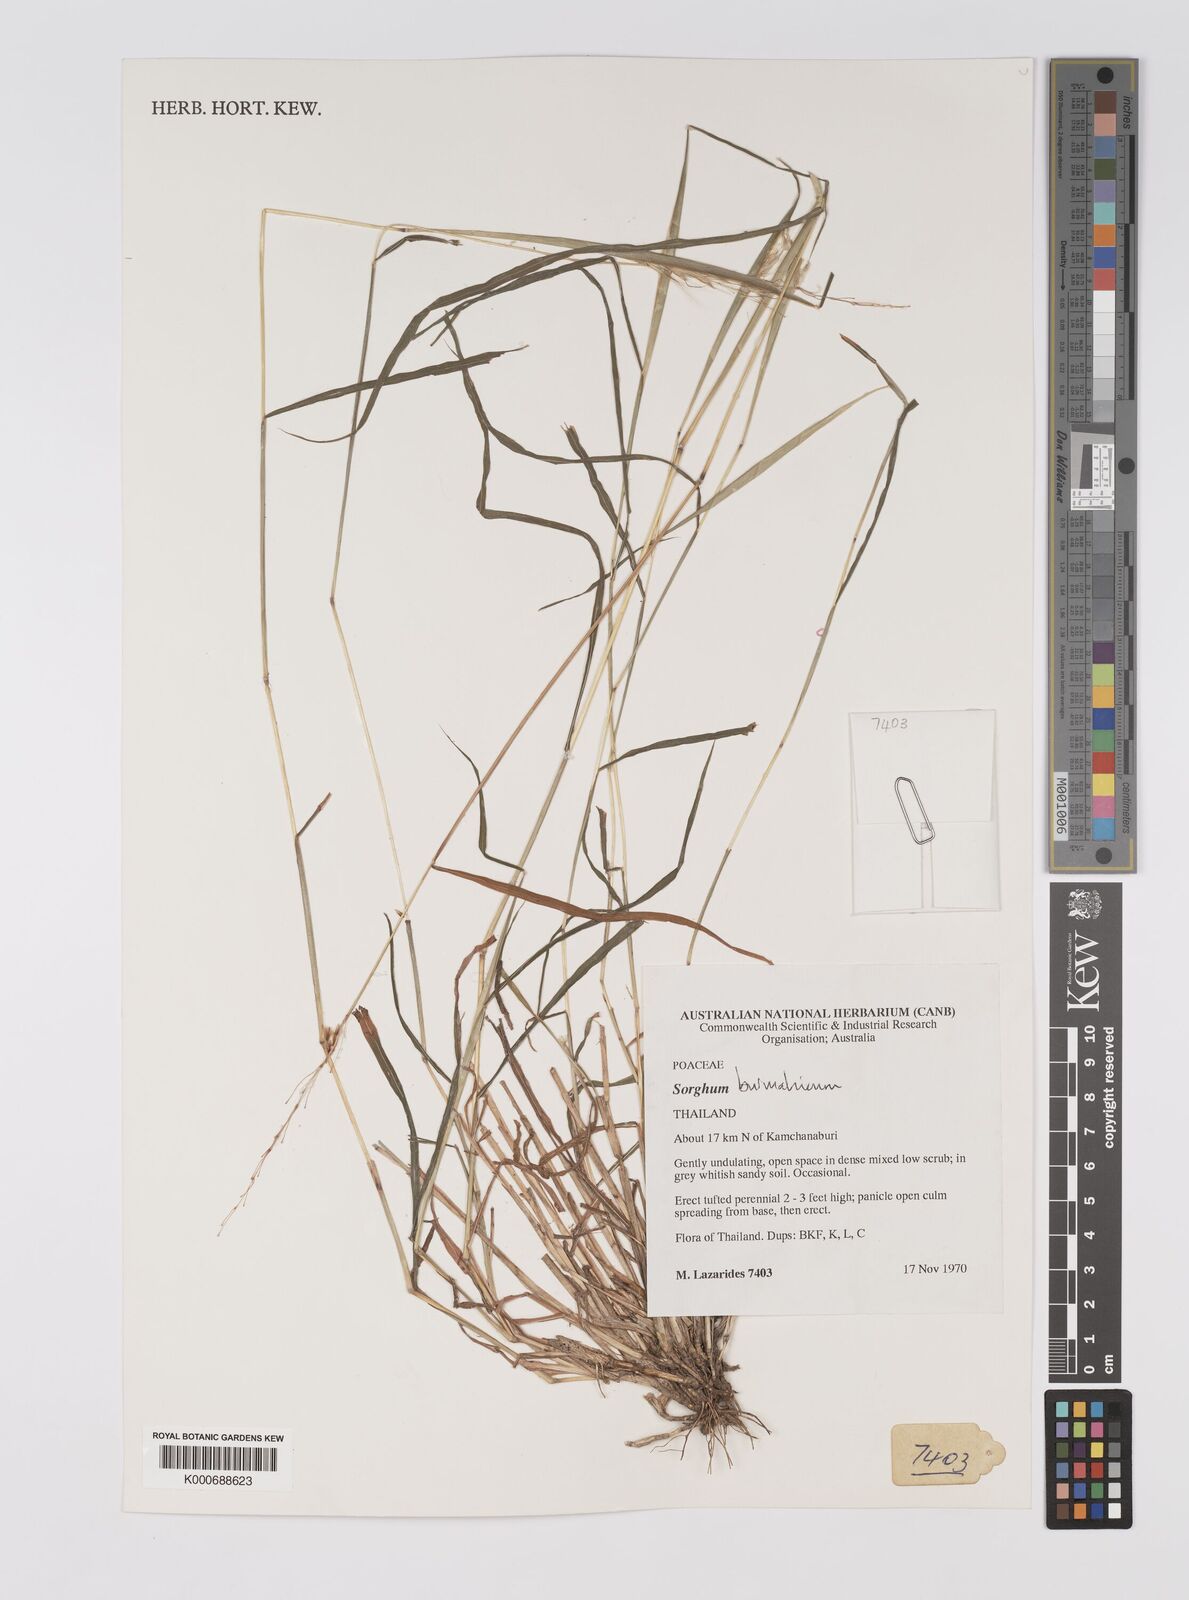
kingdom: Plantae
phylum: Tracheophyta
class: Liliopsida
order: Poales
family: Poaceae
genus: Sorghum
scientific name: Sorghum burmahicum
